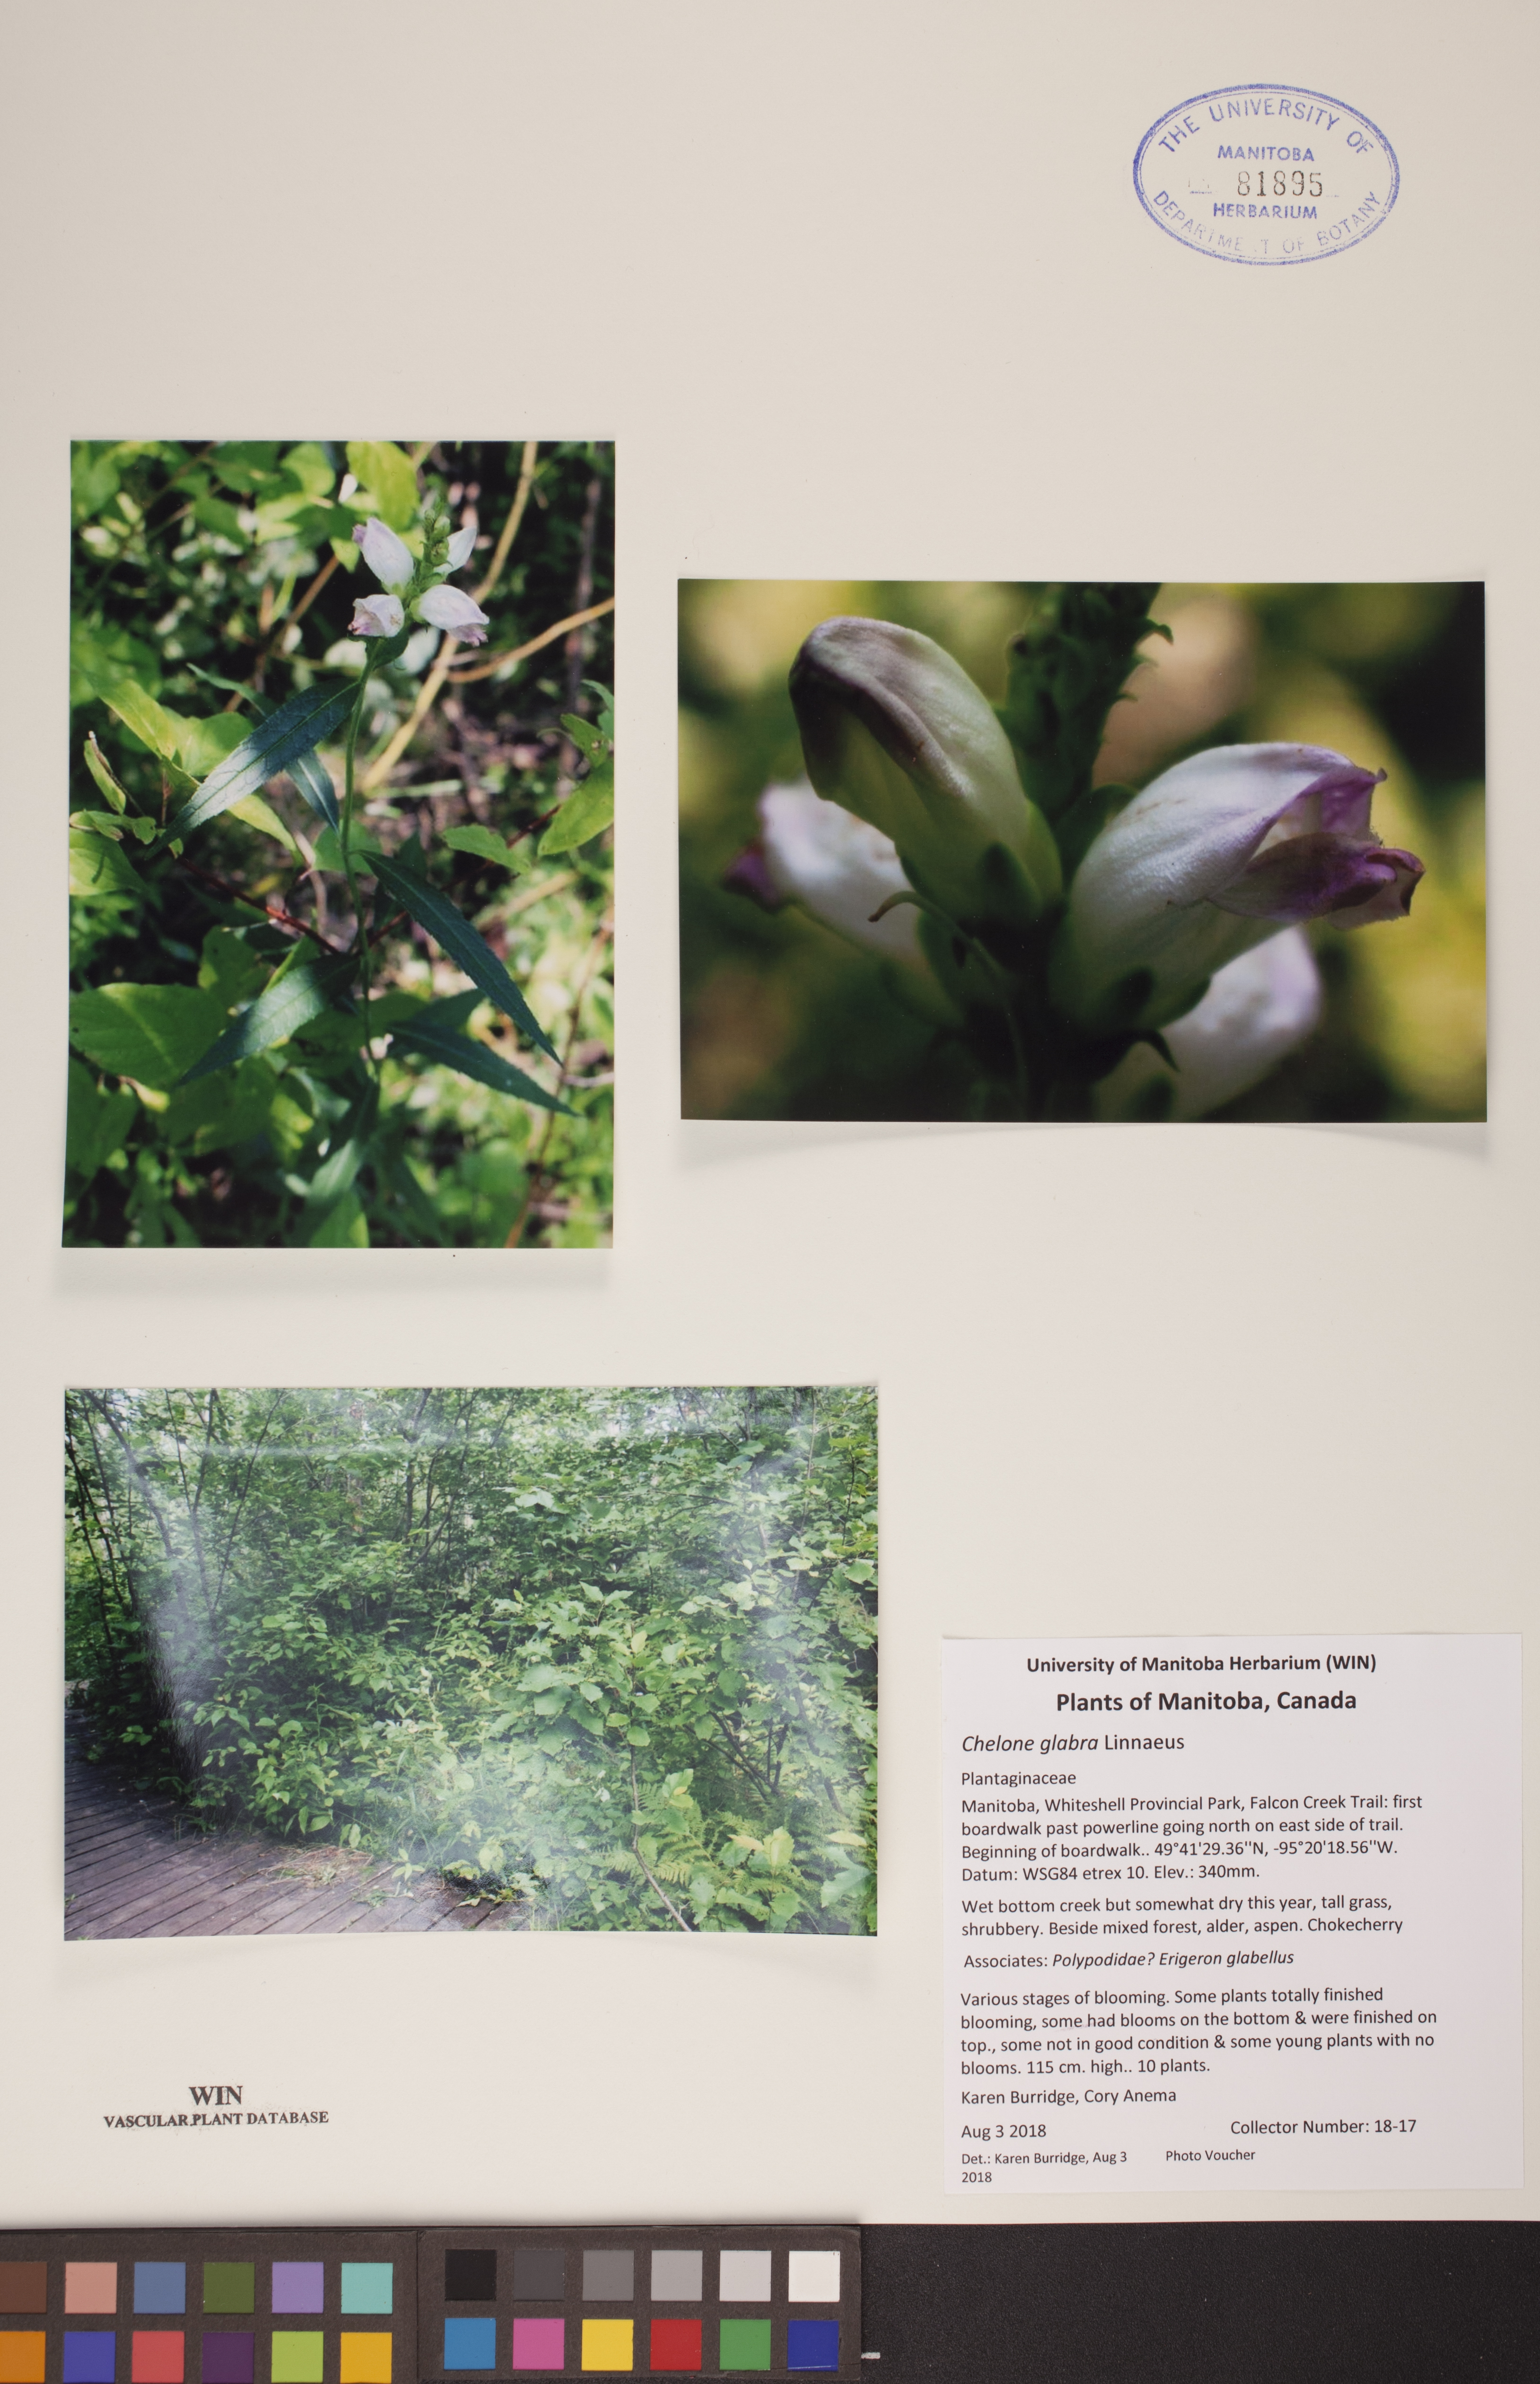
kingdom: Plantae
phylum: Tracheophyta
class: Magnoliopsida
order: Lamiales
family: Plantaginaceae
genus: Chelone
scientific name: Chelone glabra
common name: Snakehead
